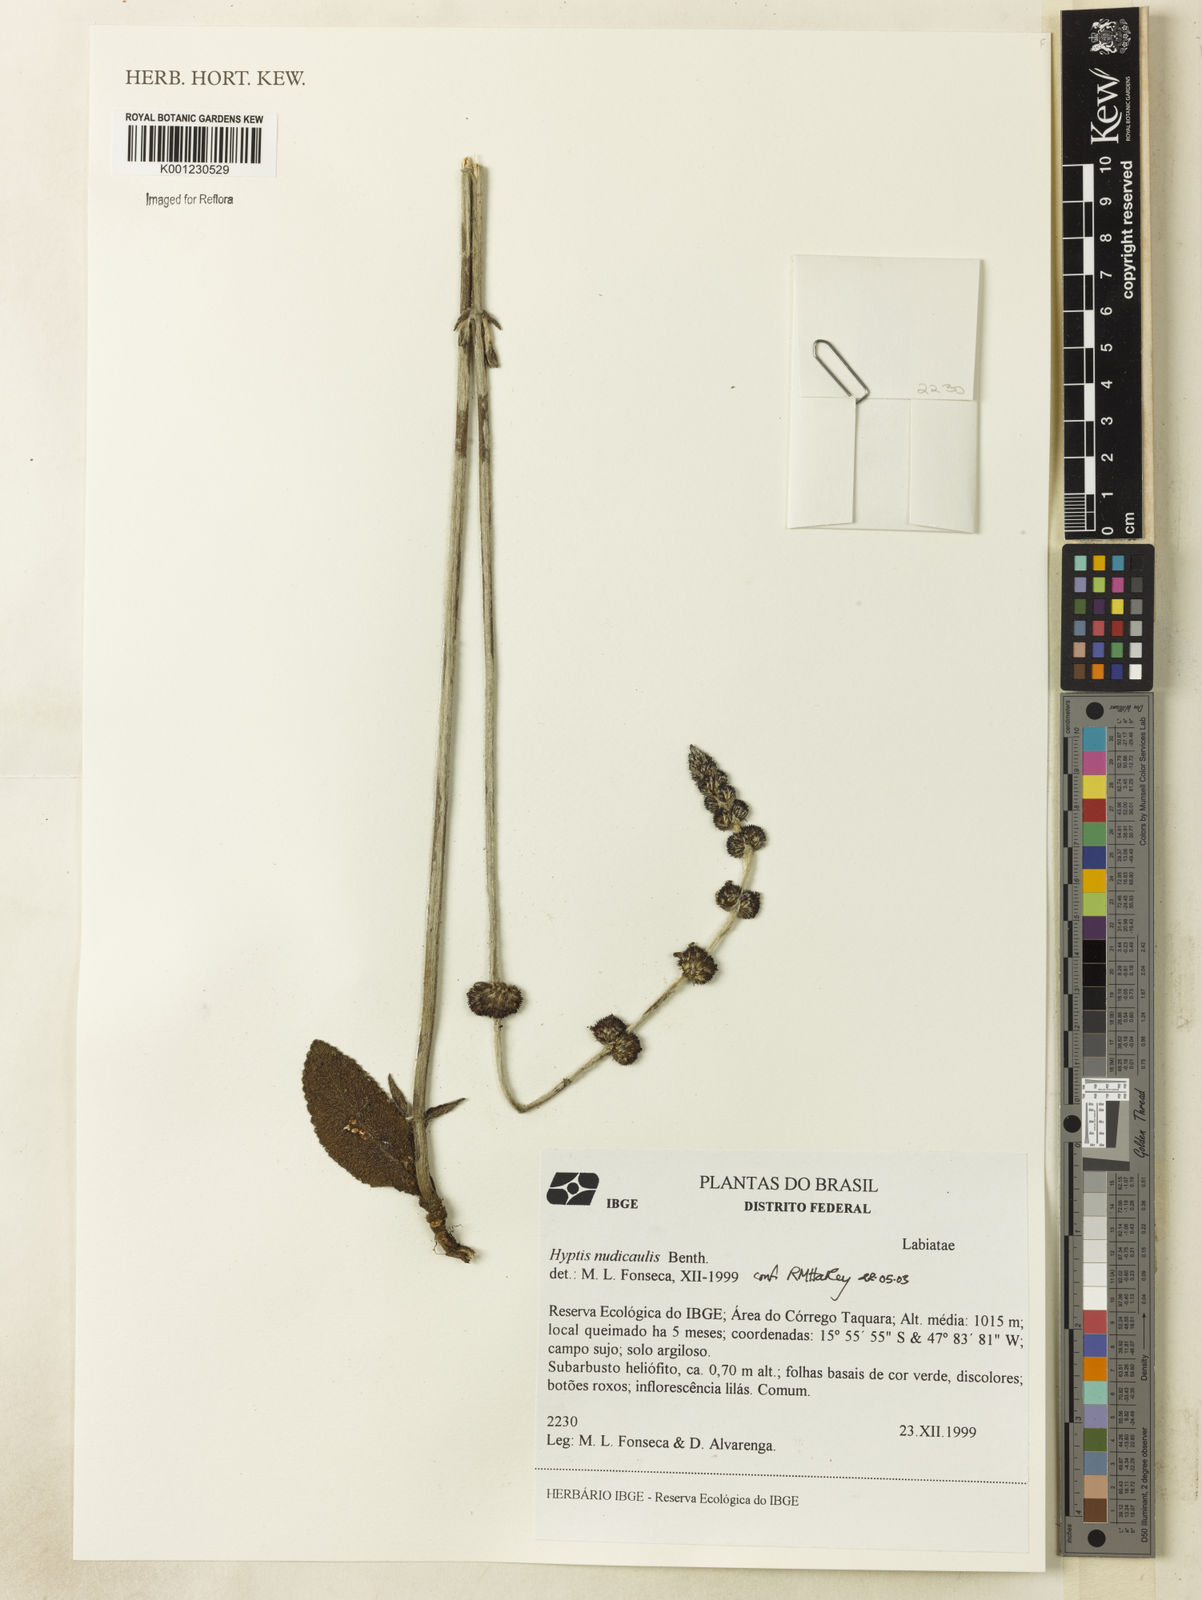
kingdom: Plantae
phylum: Tracheophyta
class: Magnoliopsida
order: Lamiales
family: Lamiaceae
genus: Hyptis
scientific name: Hyptis nudicaulis
